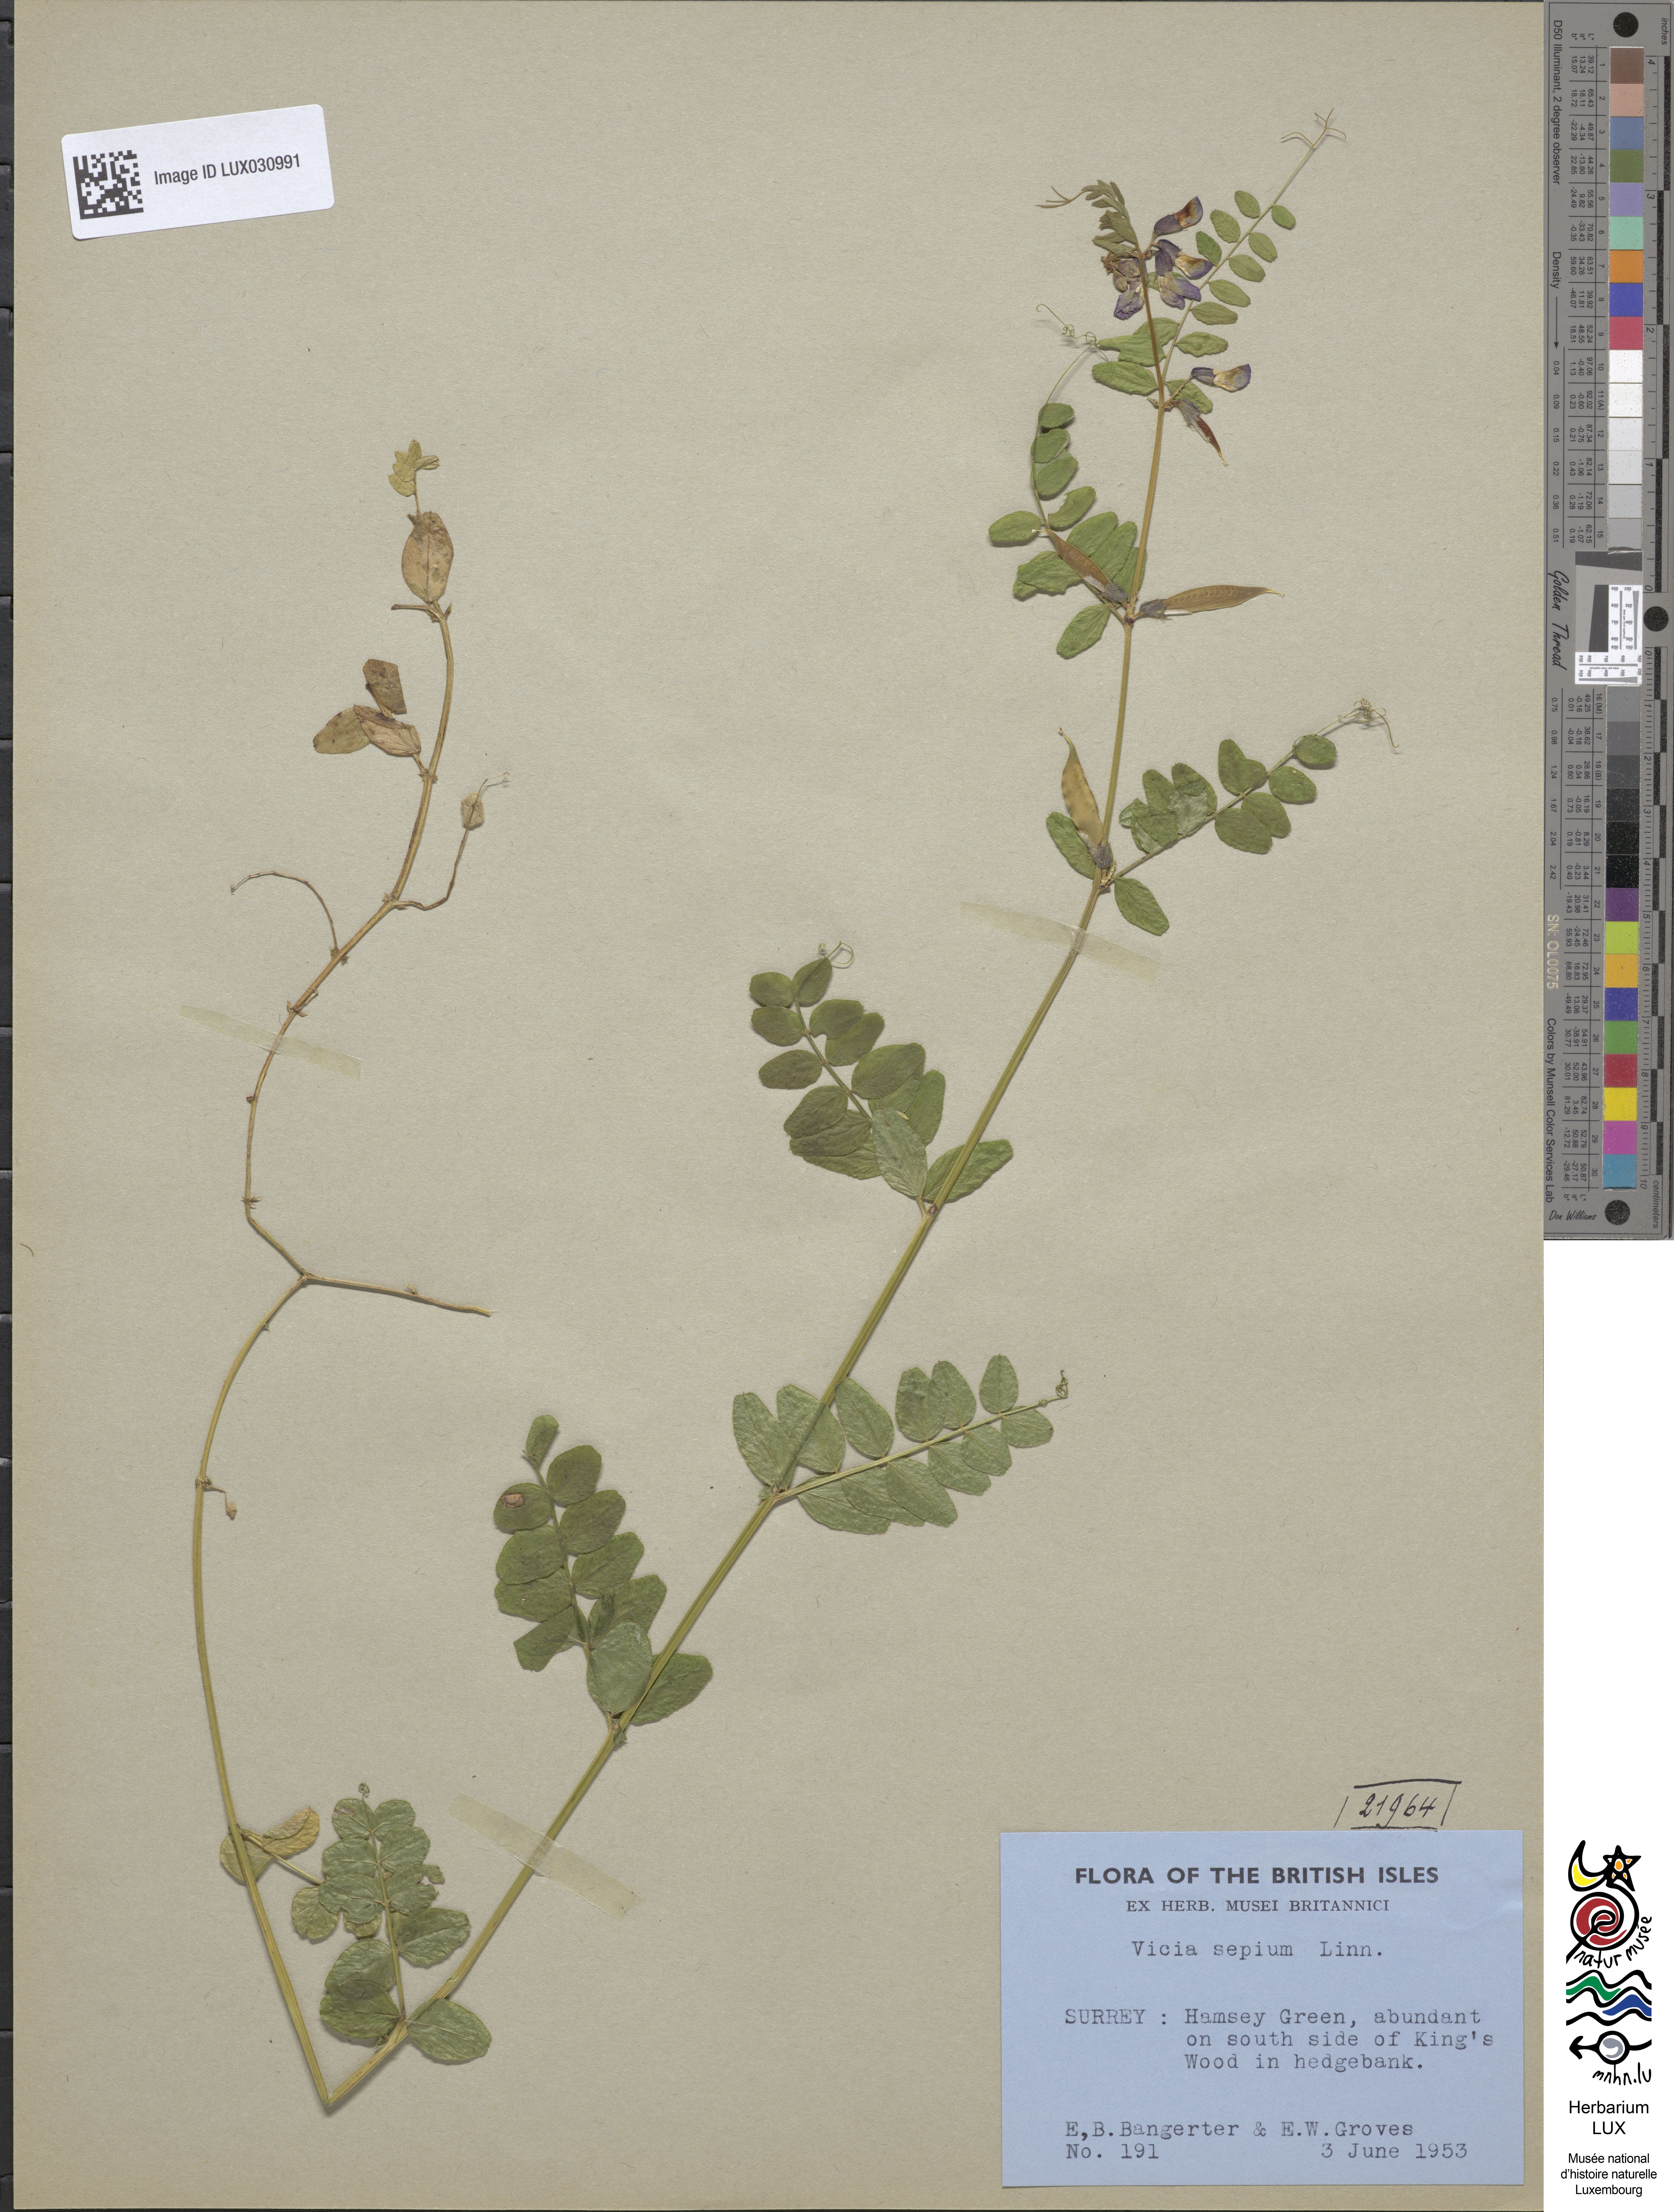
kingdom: Plantae
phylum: Tracheophyta
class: Magnoliopsida
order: Fabales
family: Fabaceae
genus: Vicia
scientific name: Vicia sepium
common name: Bush vetch
